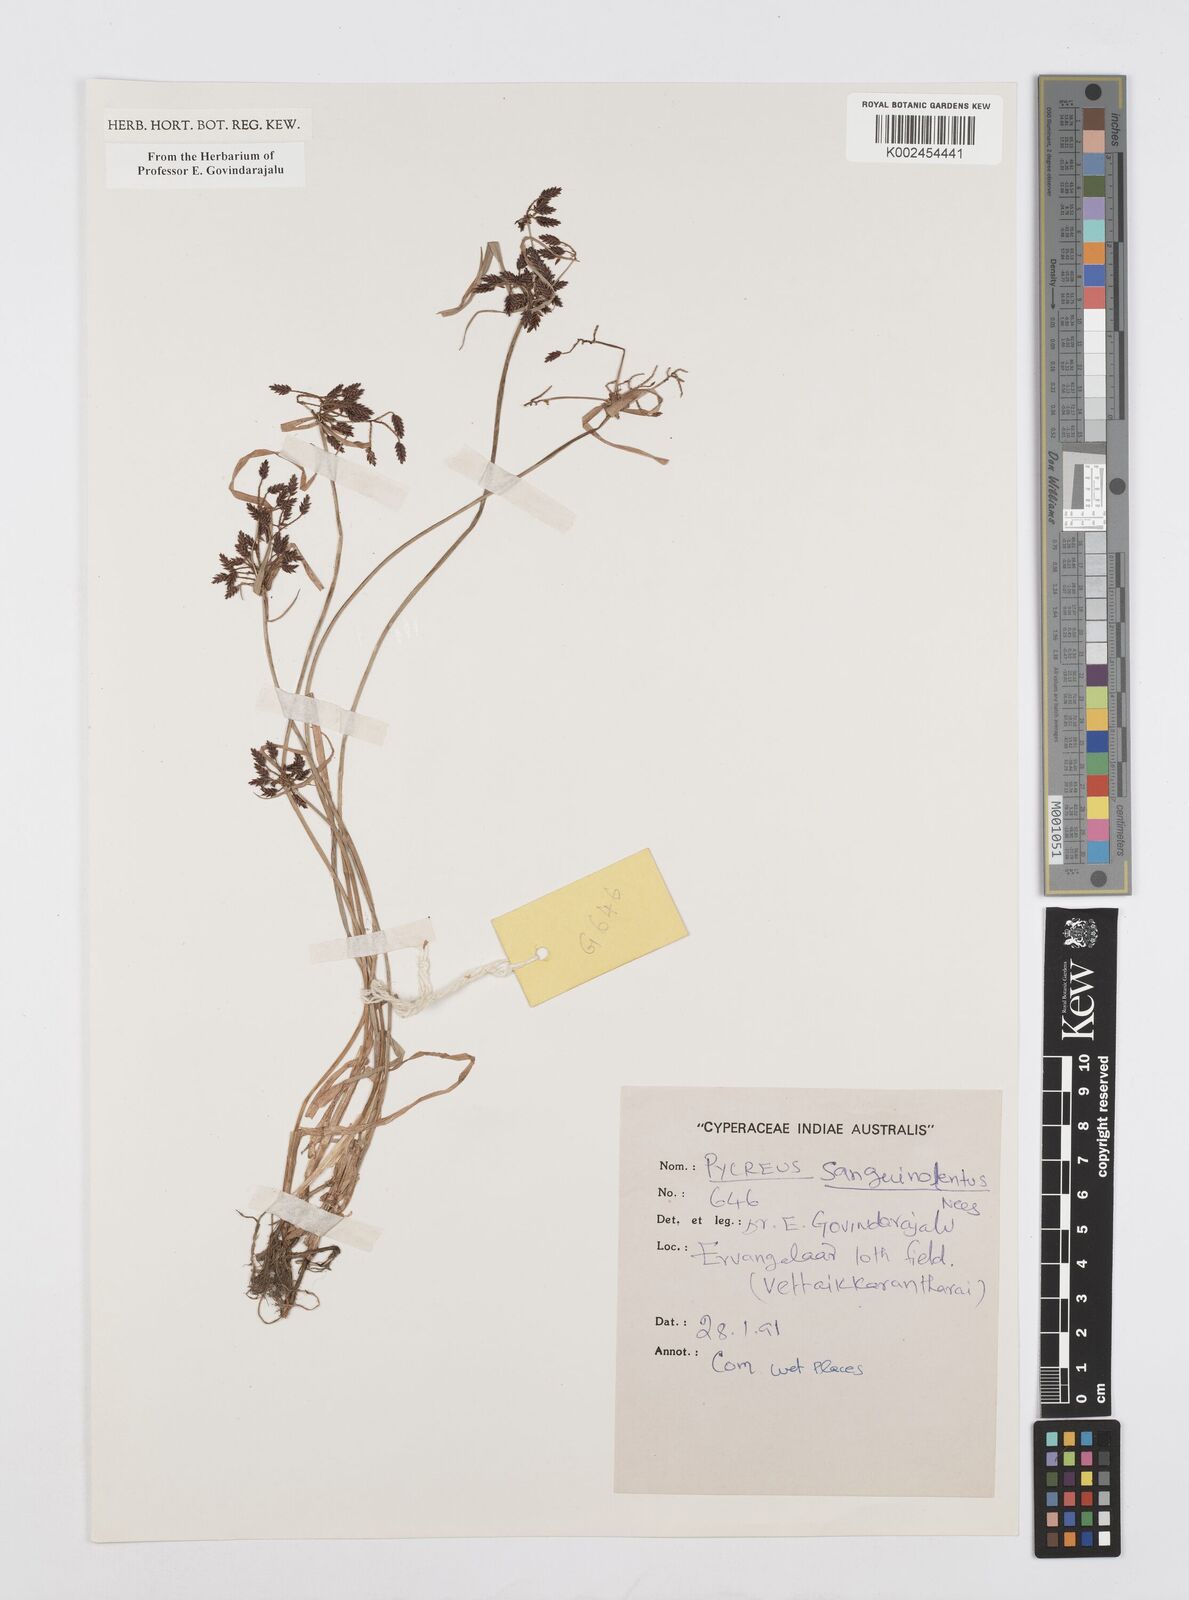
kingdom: Plantae
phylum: Tracheophyta
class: Liliopsida
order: Poales
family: Cyperaceae
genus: Cyperus
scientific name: Cyperus sanguinolentus
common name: Purpleglume flatsedge
